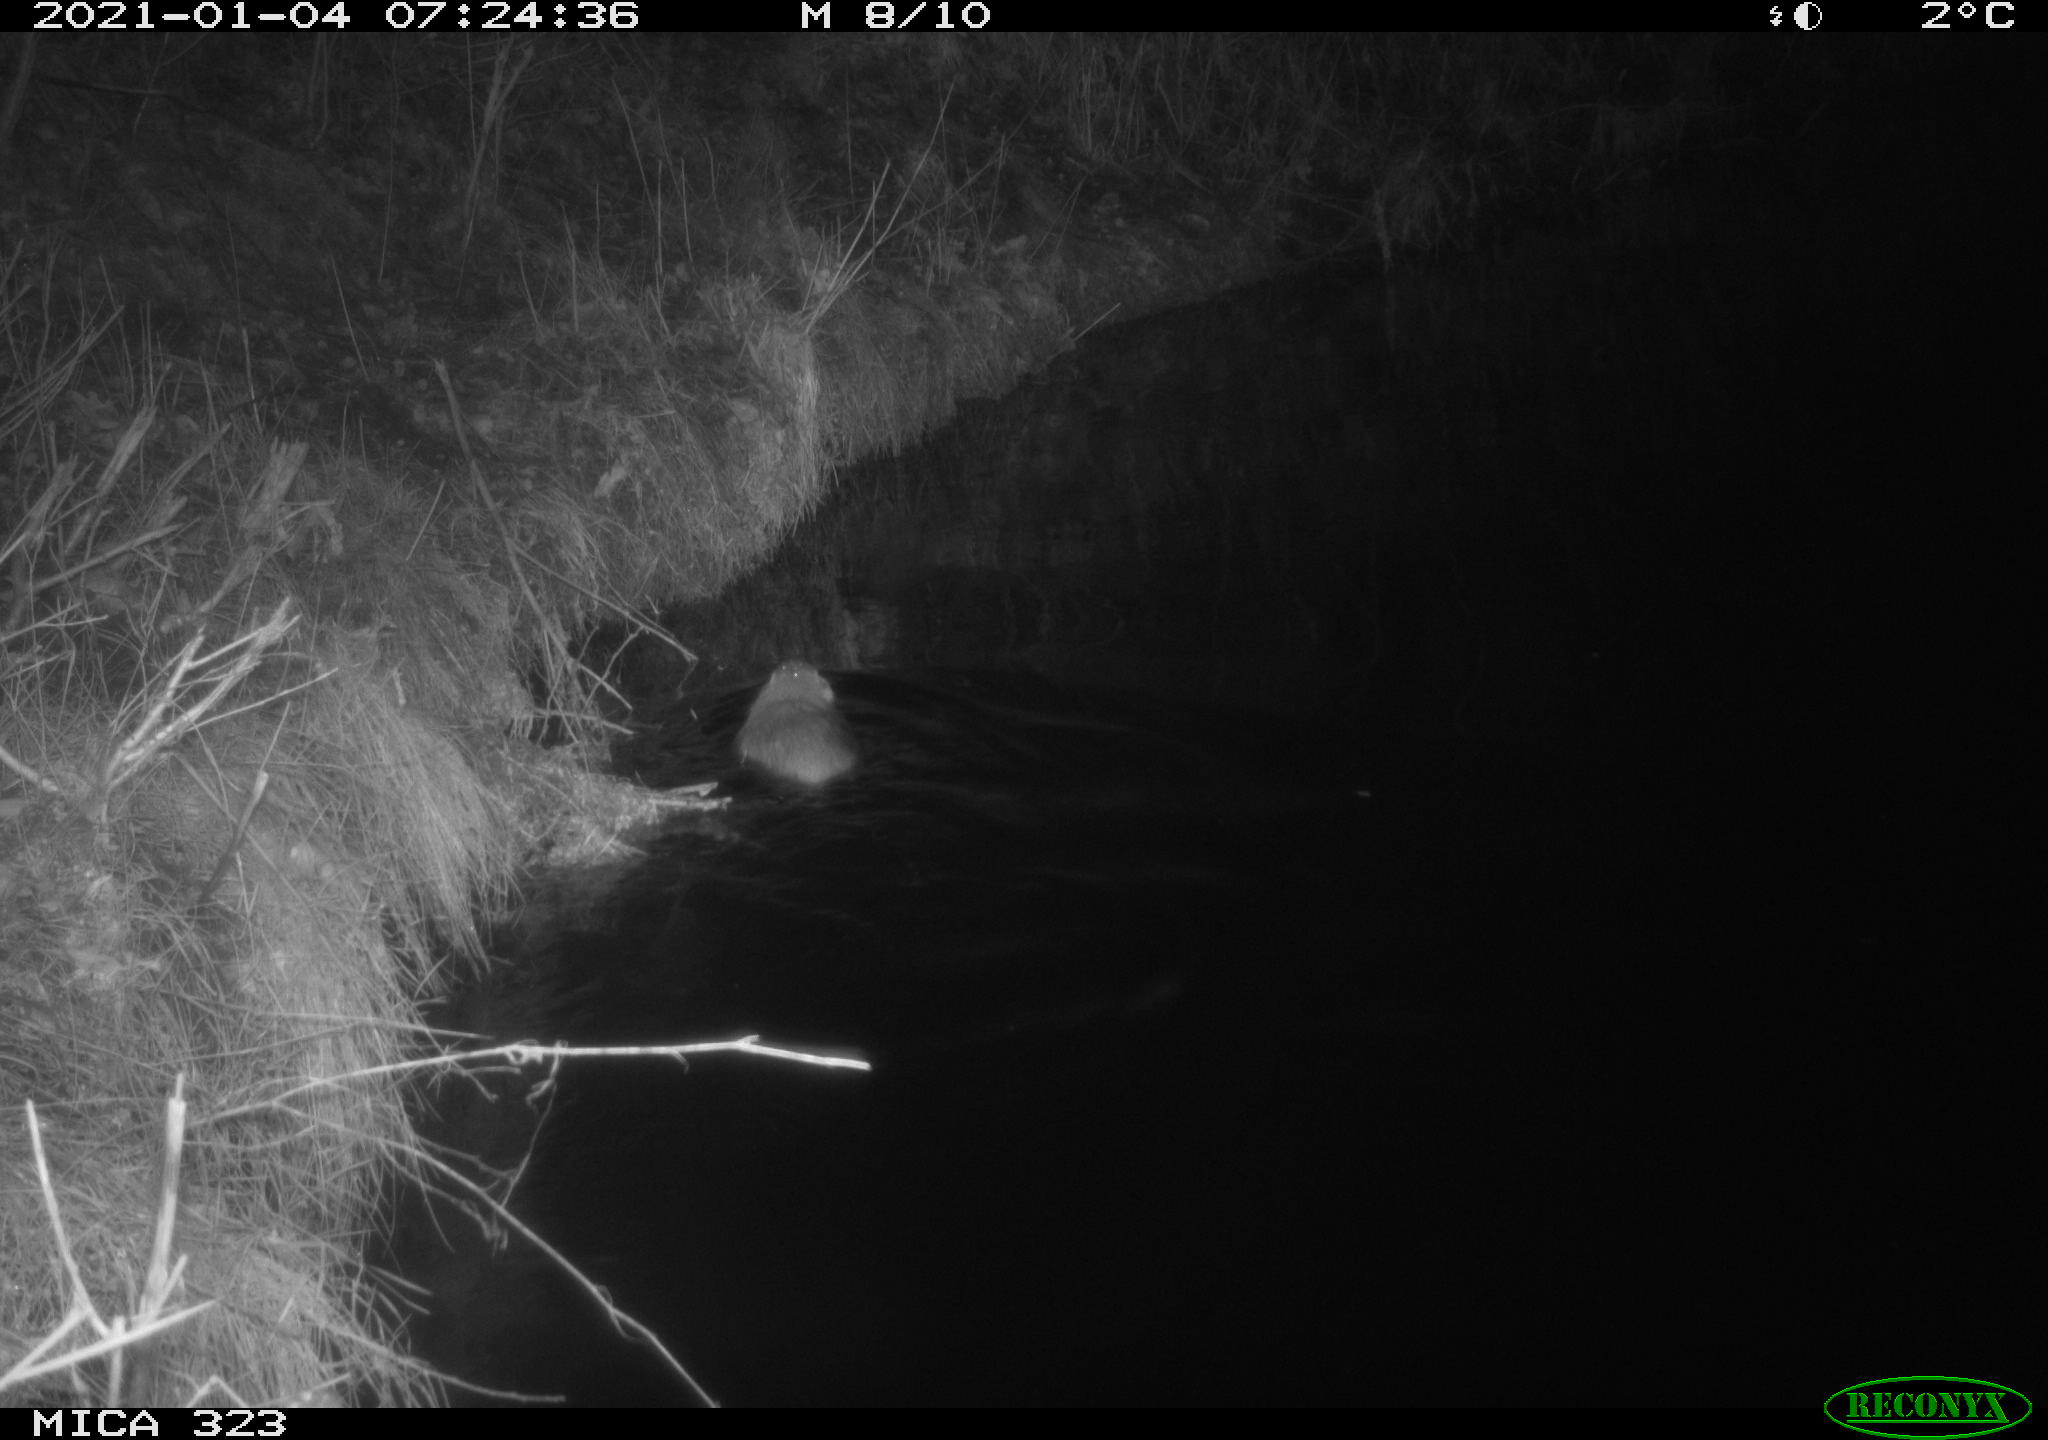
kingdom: Animalia
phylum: Chordata
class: Mammalia
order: Rodentia
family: Myocastoridae
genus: Myocastor
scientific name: Myocastor coypus
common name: Coypu
